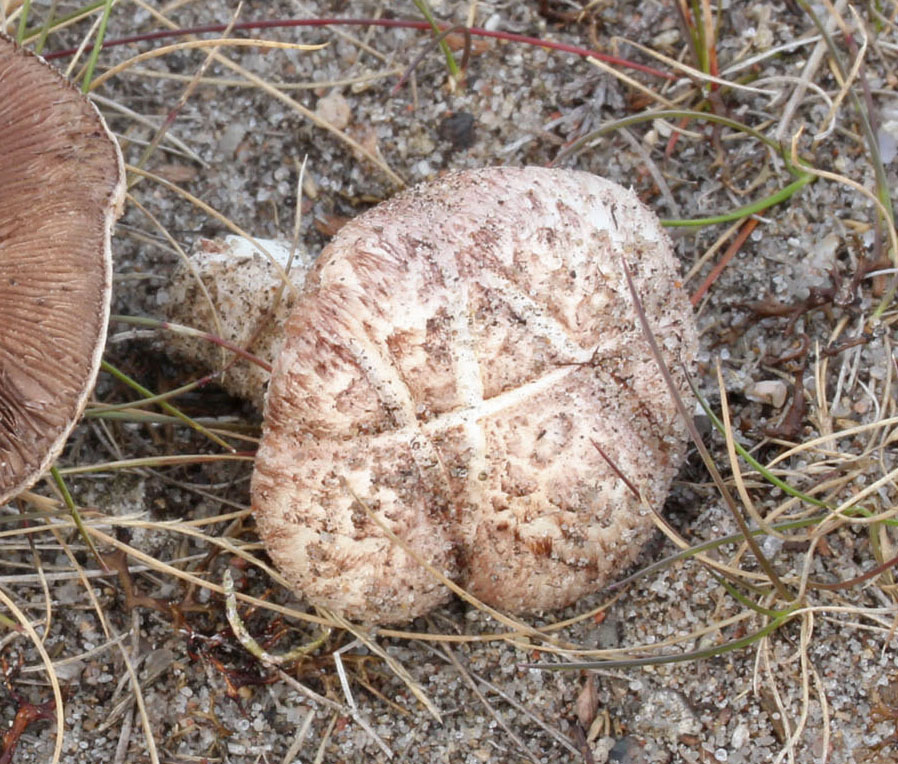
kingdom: Fungi
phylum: Basidiomycota
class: Agaricomycetes
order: Agaricales
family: Agaricaceae
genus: Agaricus
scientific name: Agaricus cupreobrunneus
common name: kobberbrun champignon
